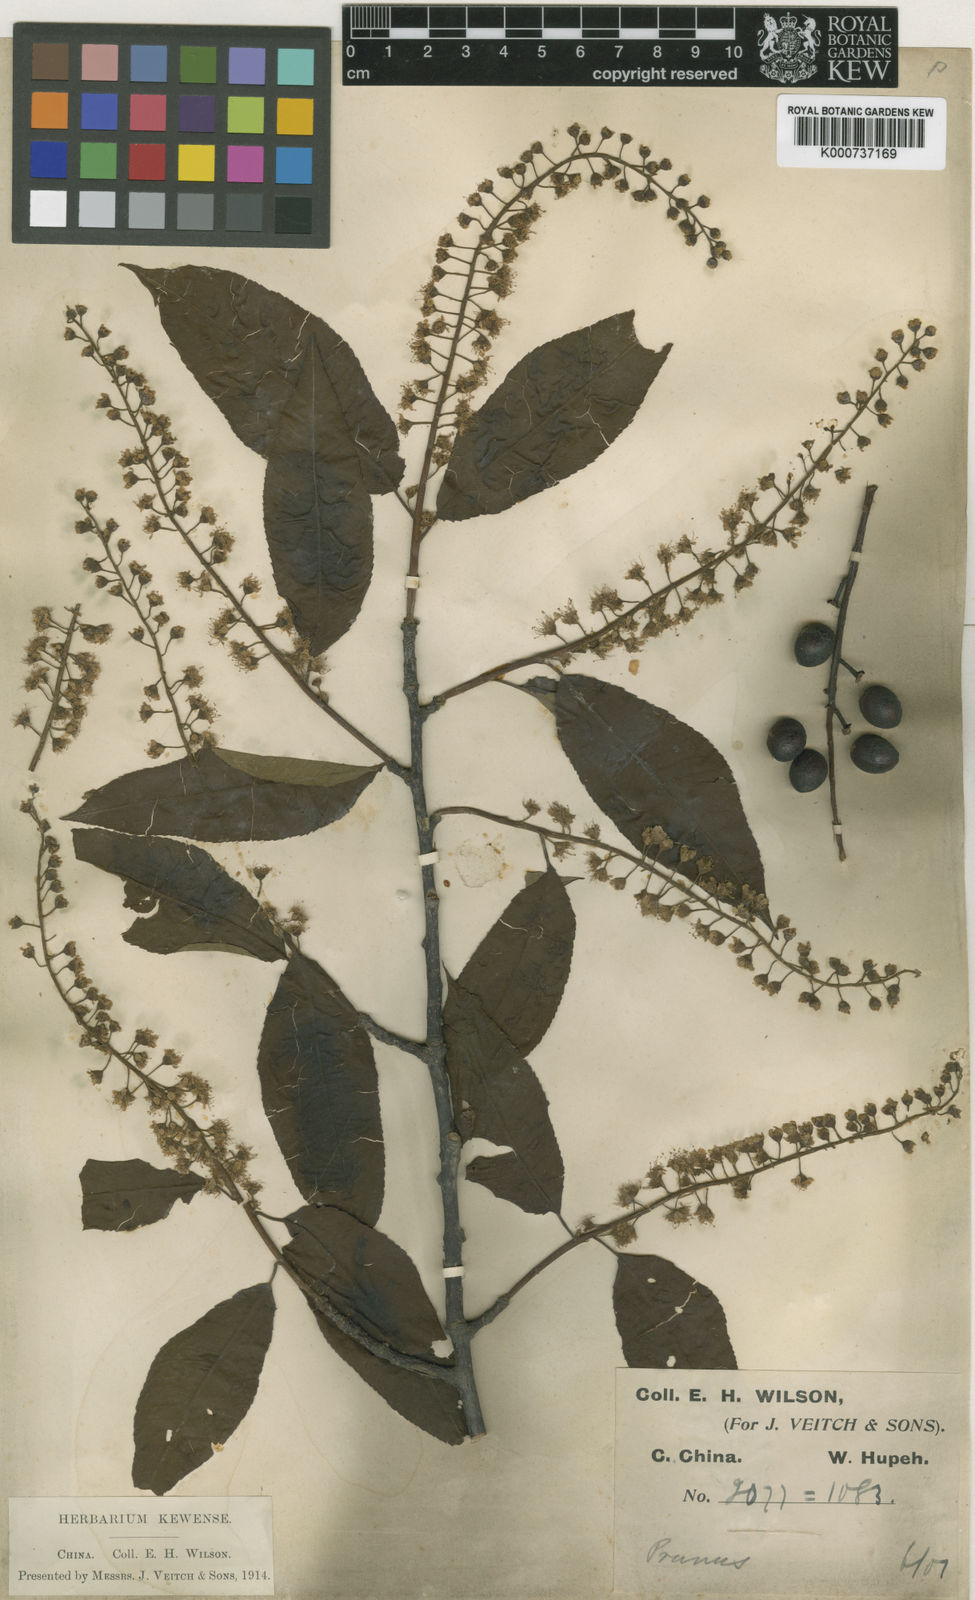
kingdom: Plantae
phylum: Tracheophyta
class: Magnoliopsida
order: Rosales
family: Rosaceae
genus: Prunus
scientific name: Prunus wilsonii
